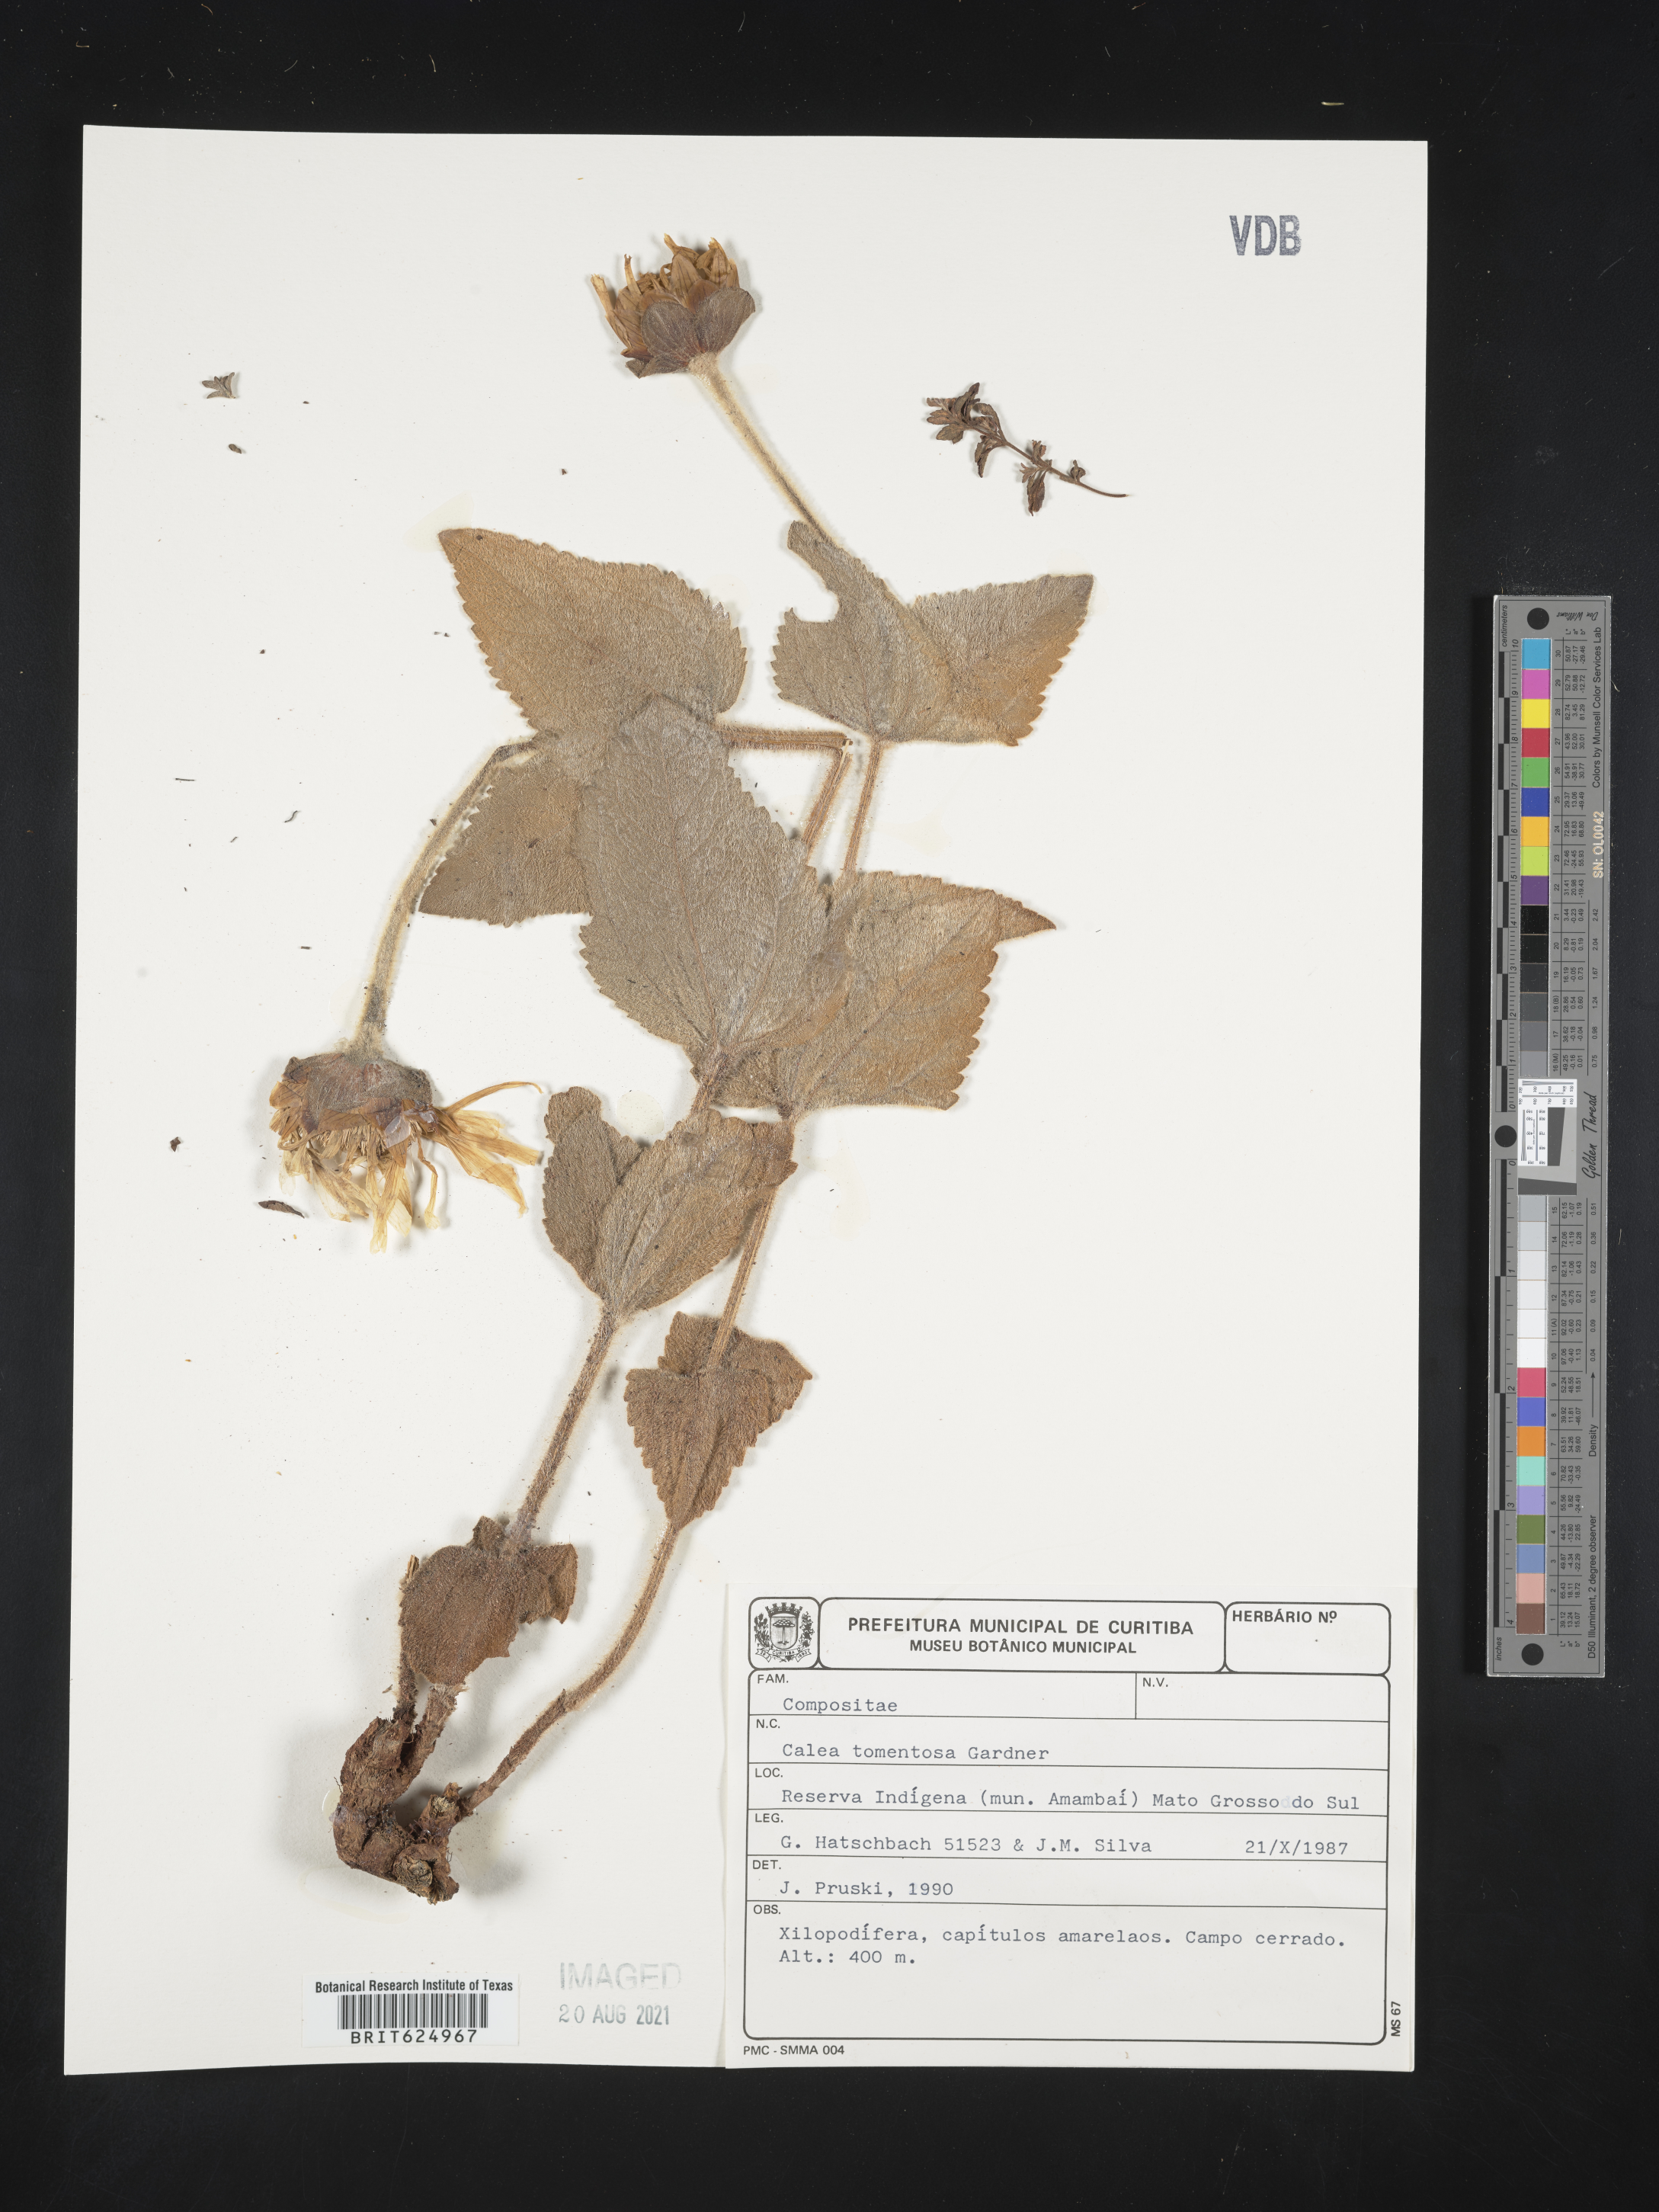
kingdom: Plantae
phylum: Tracheophyta
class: Magnoliopsida
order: Asterales
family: Asteraceae
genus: Calea
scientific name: Calea pohliana
